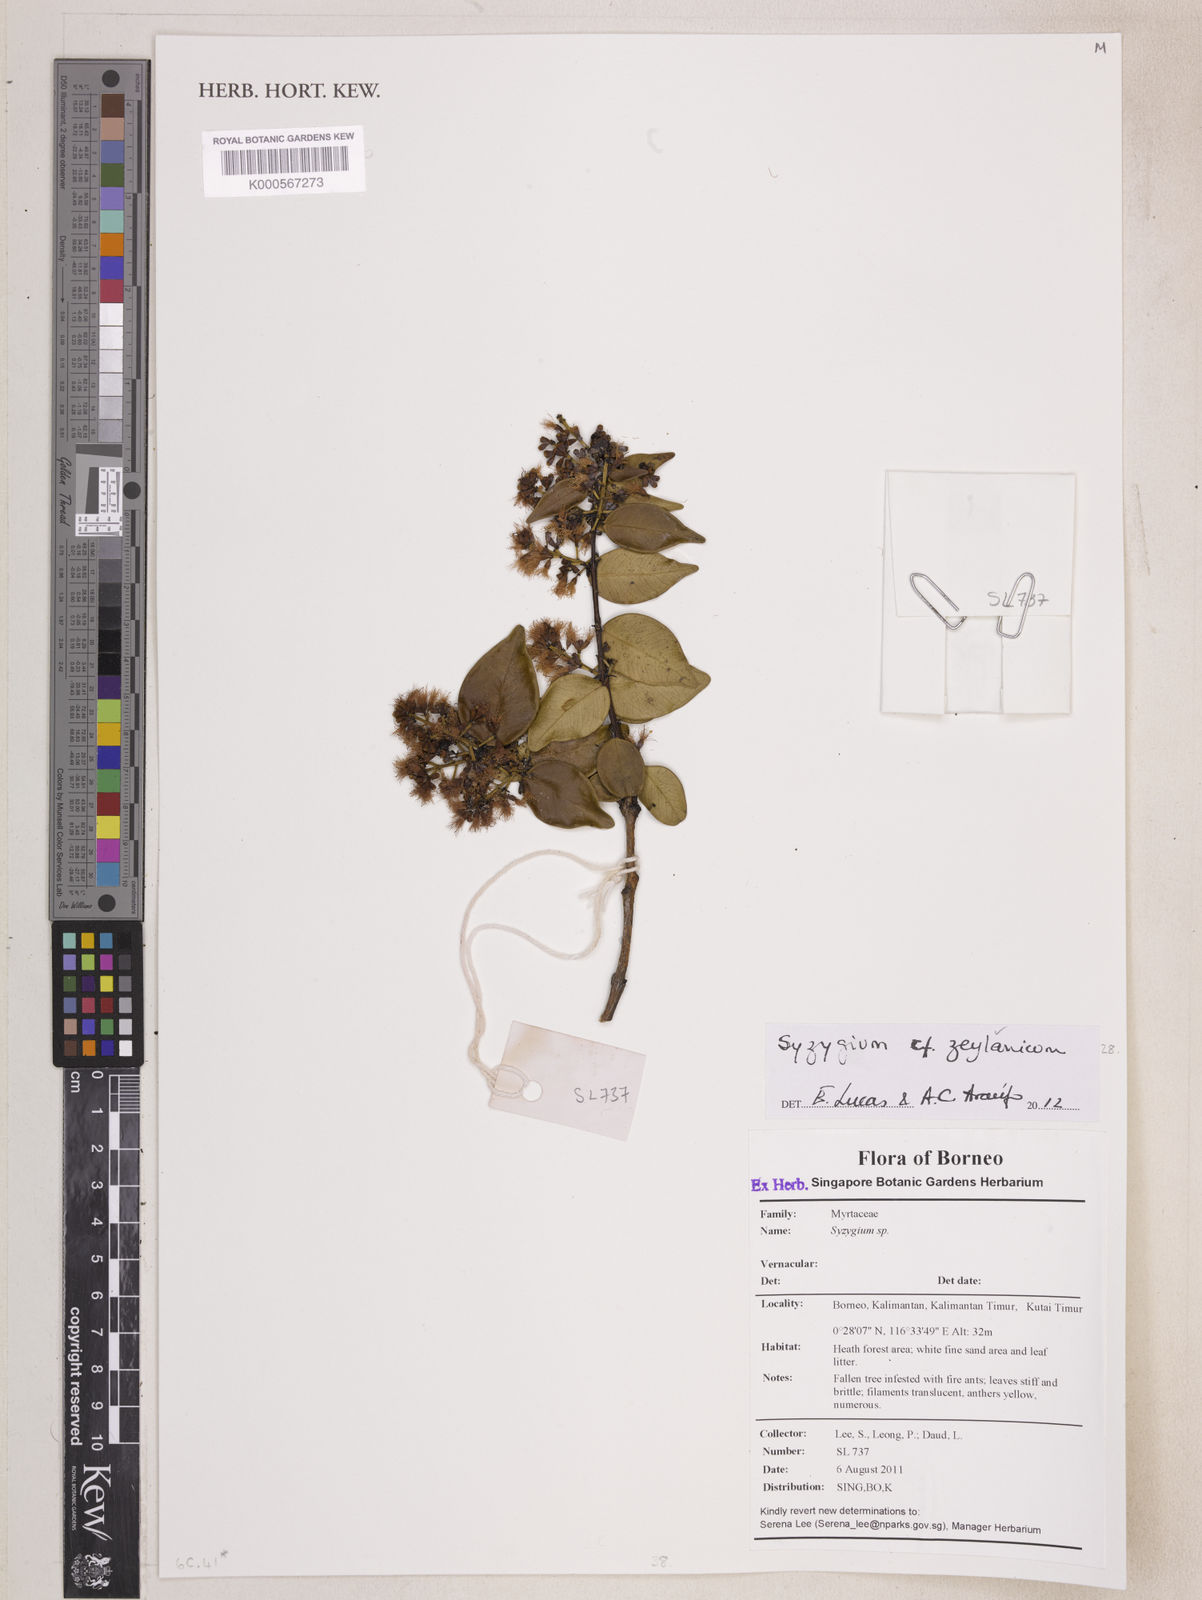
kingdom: Plantae
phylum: Tracheophyta
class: Magnoliopsida
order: Myrtales
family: Myrtaceae
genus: Syzygium
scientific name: Syzygium zeylanicum
